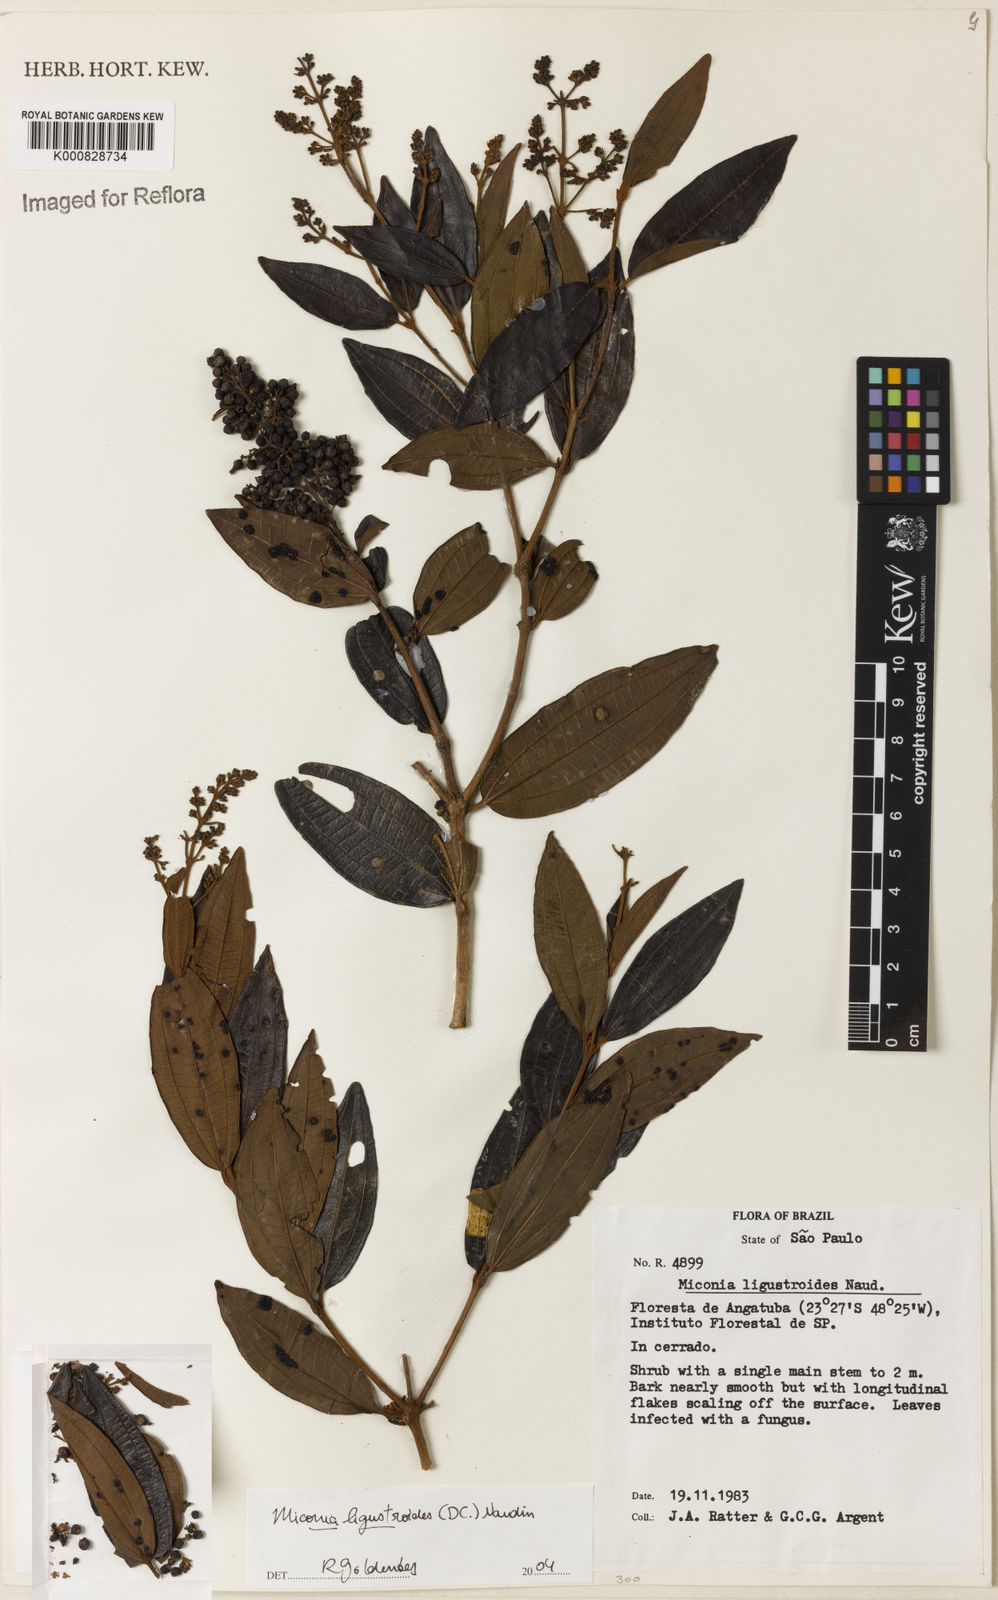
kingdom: Plantae
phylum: Tracheophyta
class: Magnoliopsida
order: Myrtales
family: Melastomataceae
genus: Miconia
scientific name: Miconia ligustroides
